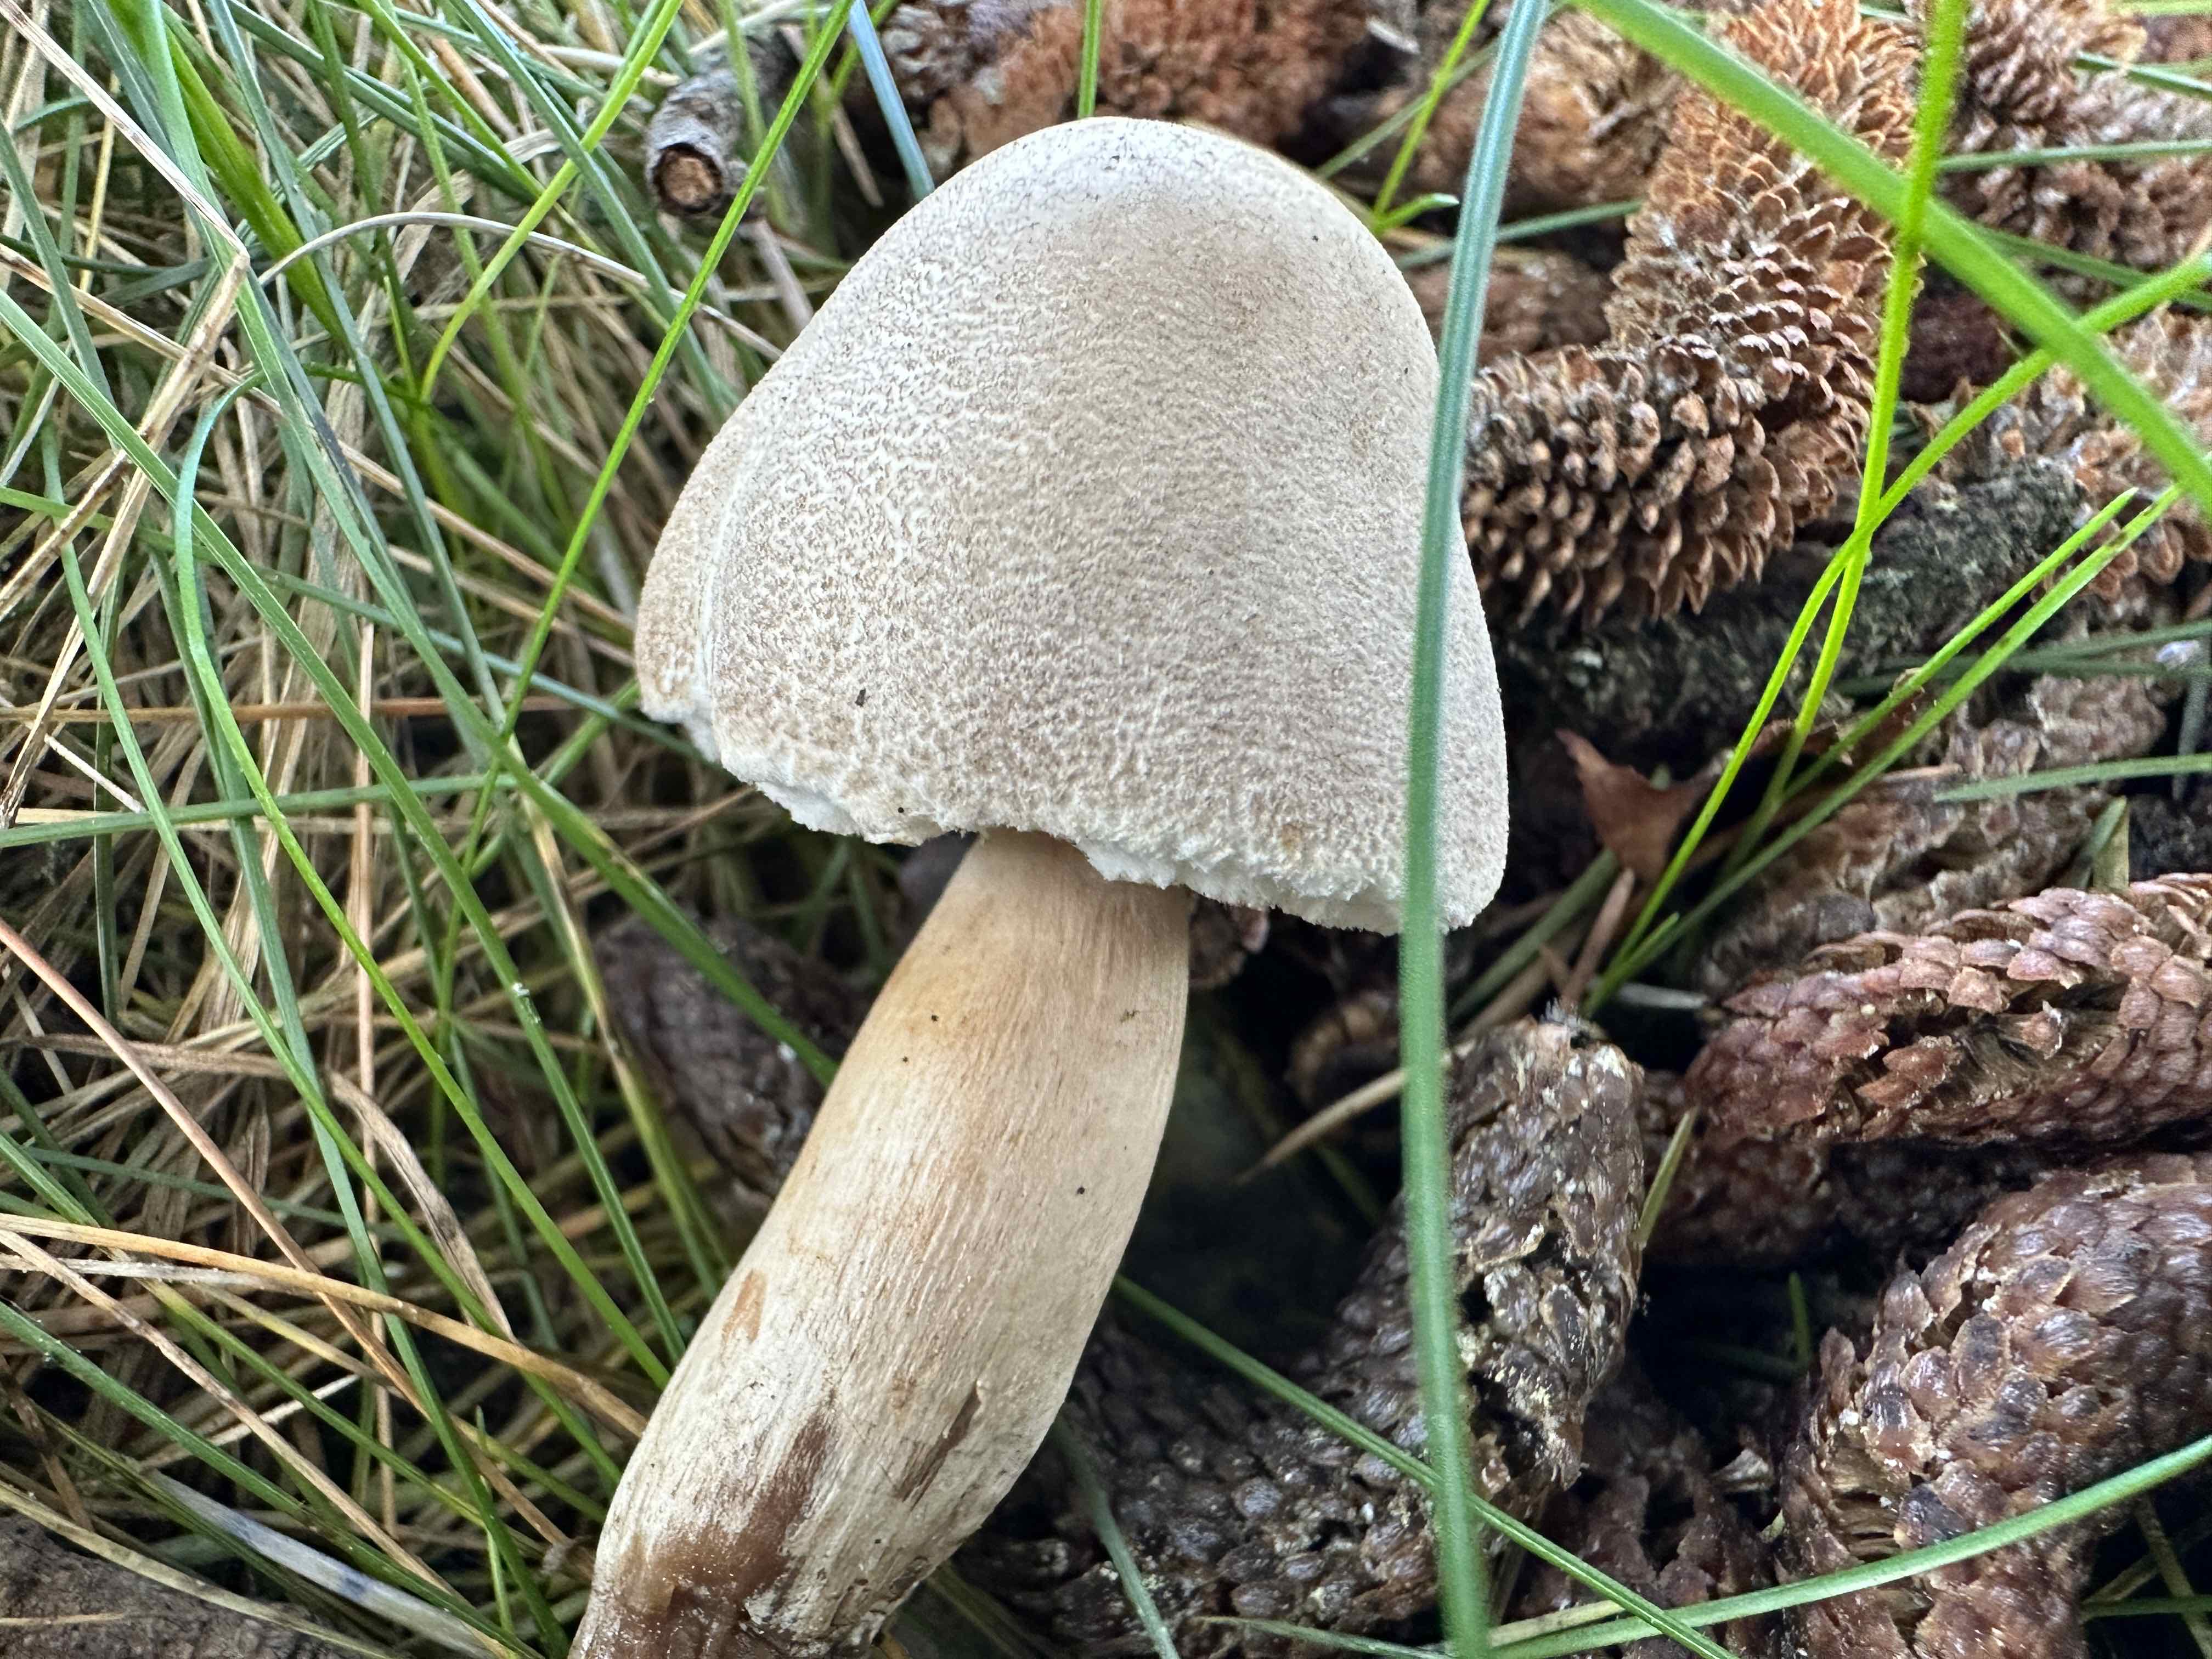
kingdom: Fungi
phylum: Basidiomycota
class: Agaricomycetes
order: Agaricales
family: Agaricaceae
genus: Leucoagaricus
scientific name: Leucoagaricus carneifolius
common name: grånende silkehat
